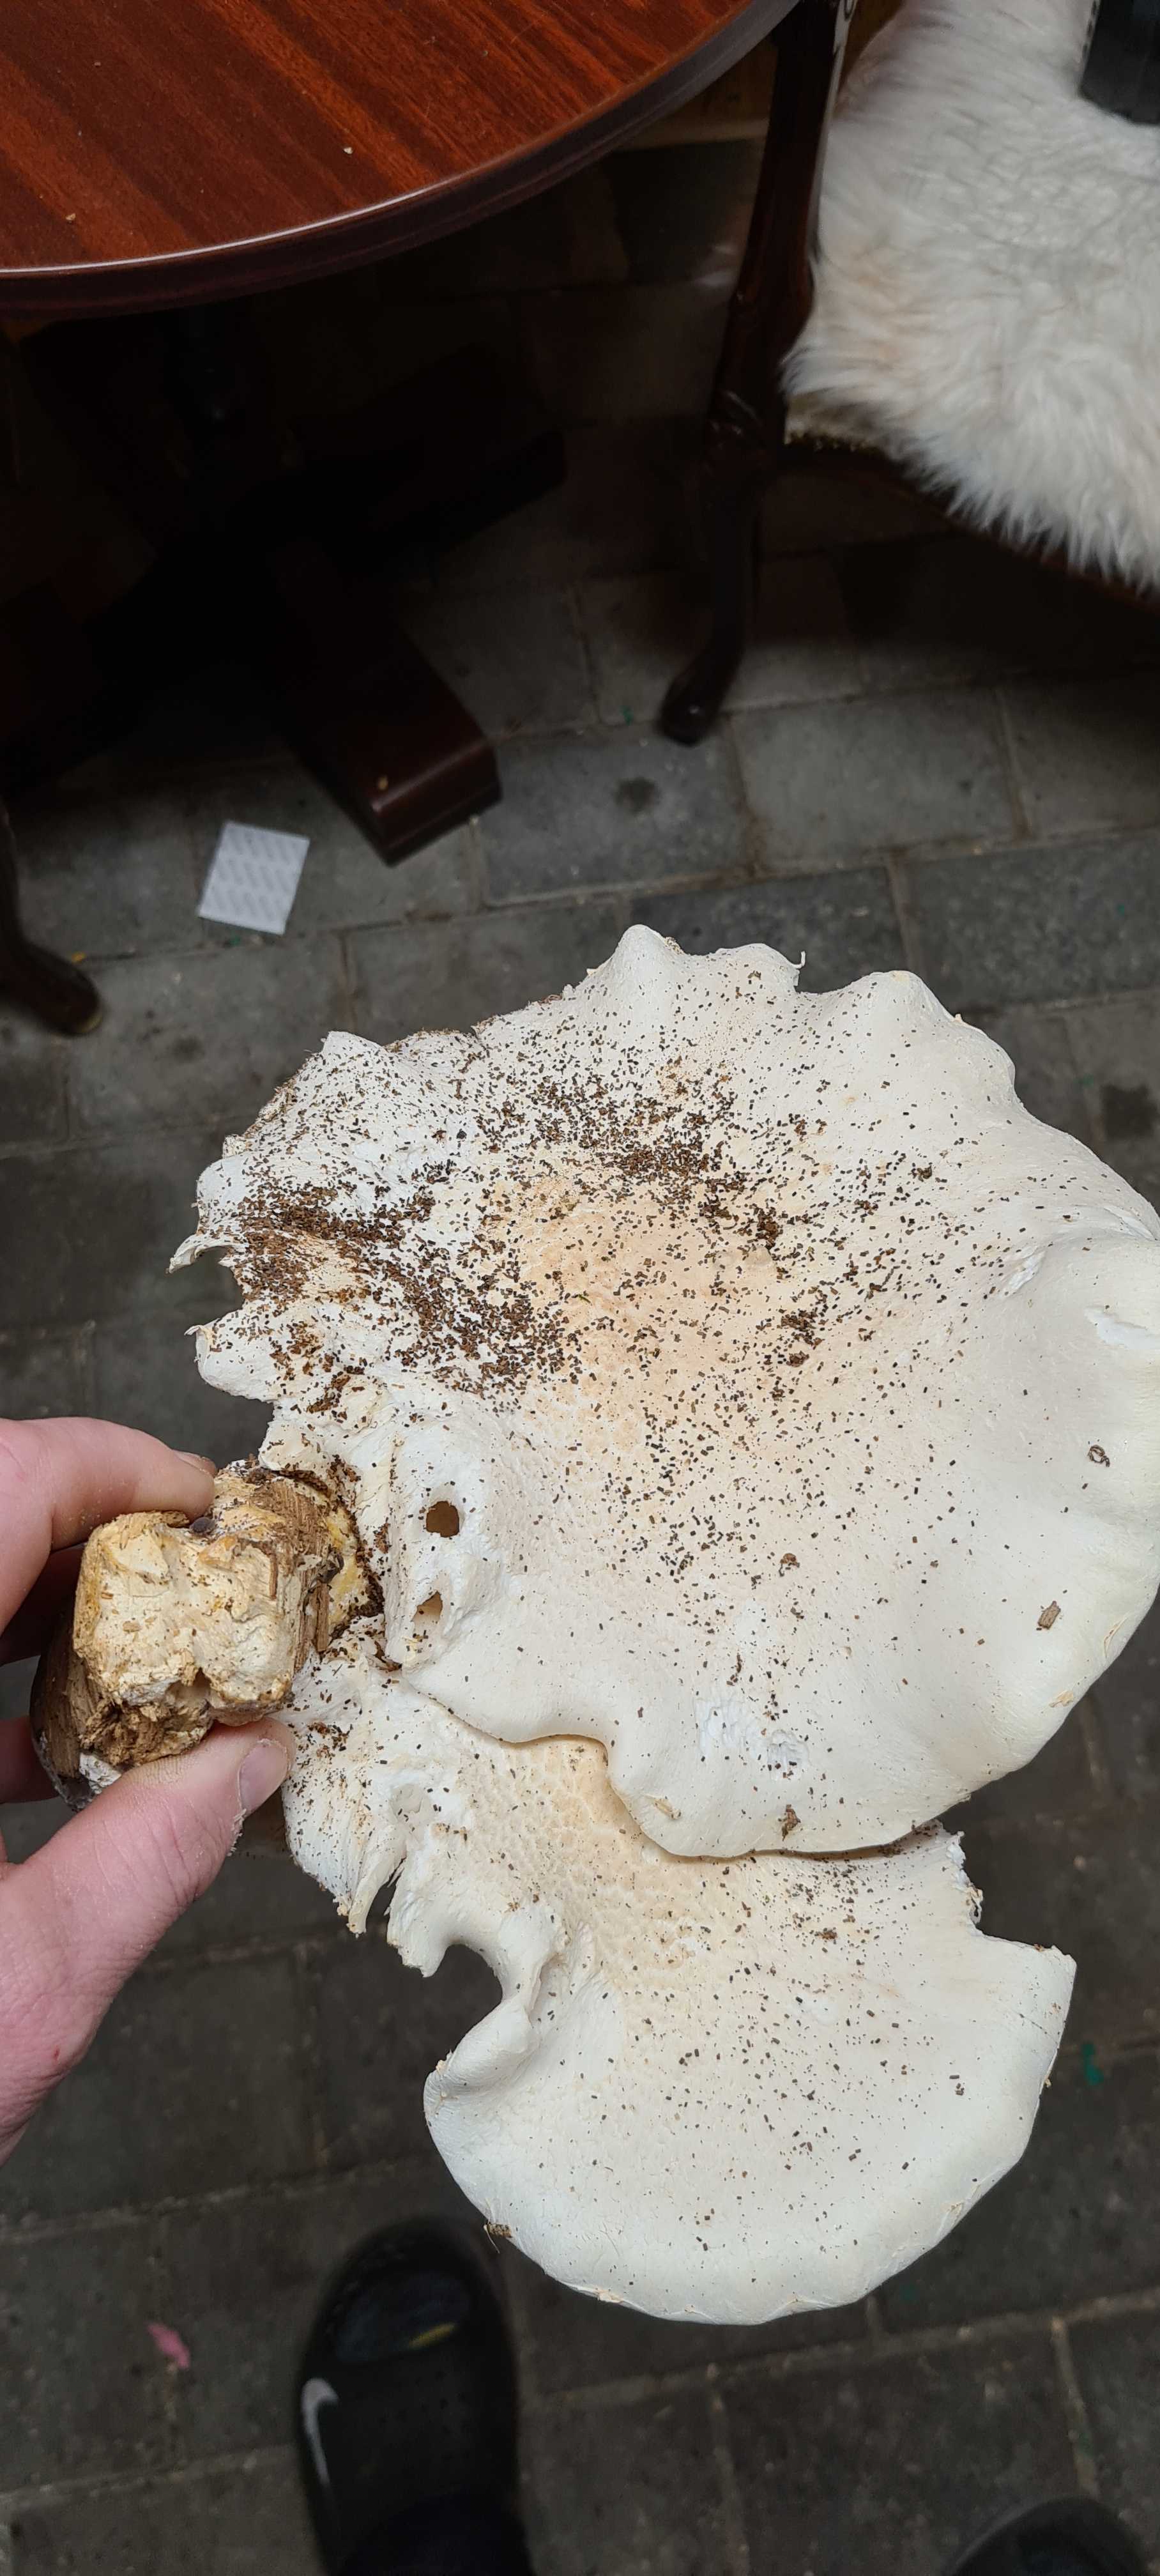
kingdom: Fungi
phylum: Basidiomycota
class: Agaricomycetes
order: Agaricales
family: Tricholomataceae
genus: Aspropaxillus
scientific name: Aspropaxillus giganteus
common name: kæmpe-tragtridderhat
